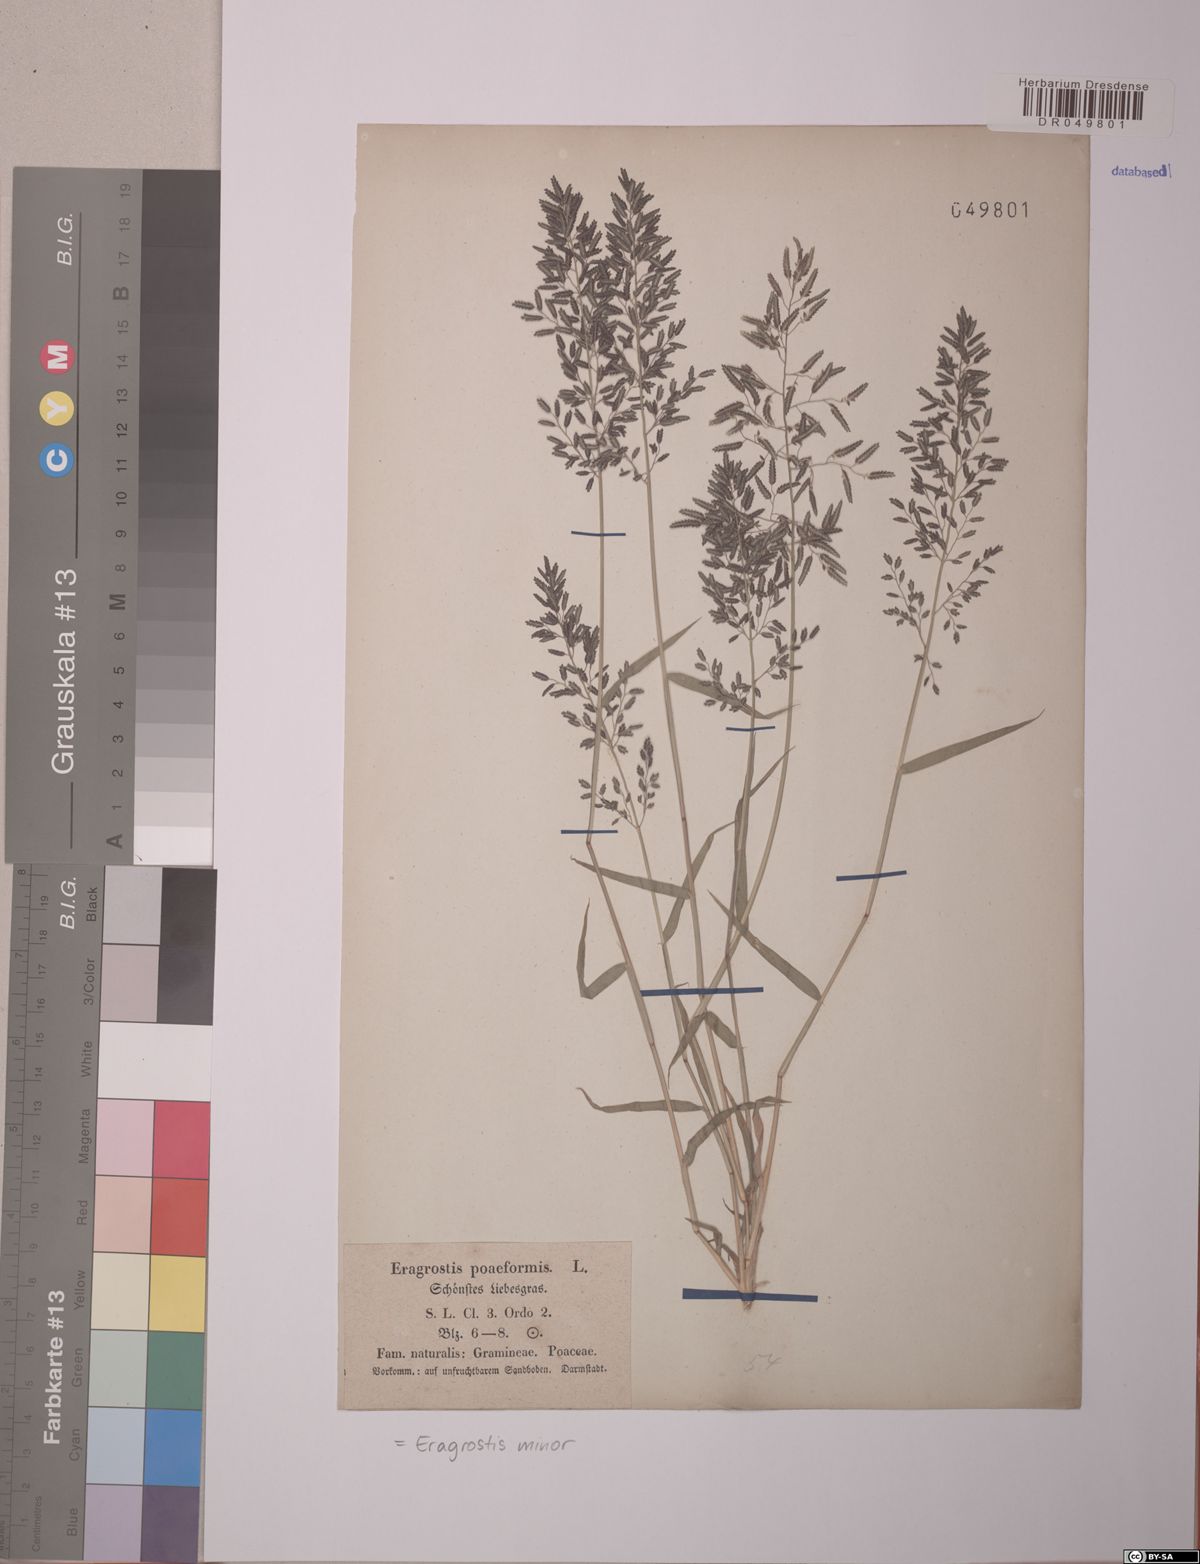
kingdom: Plantae
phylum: Tracheophyta
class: Liliopsida
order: Poales
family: Poaceae
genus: Eragrostis
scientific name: Eragrostis minor
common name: Small love-grass
